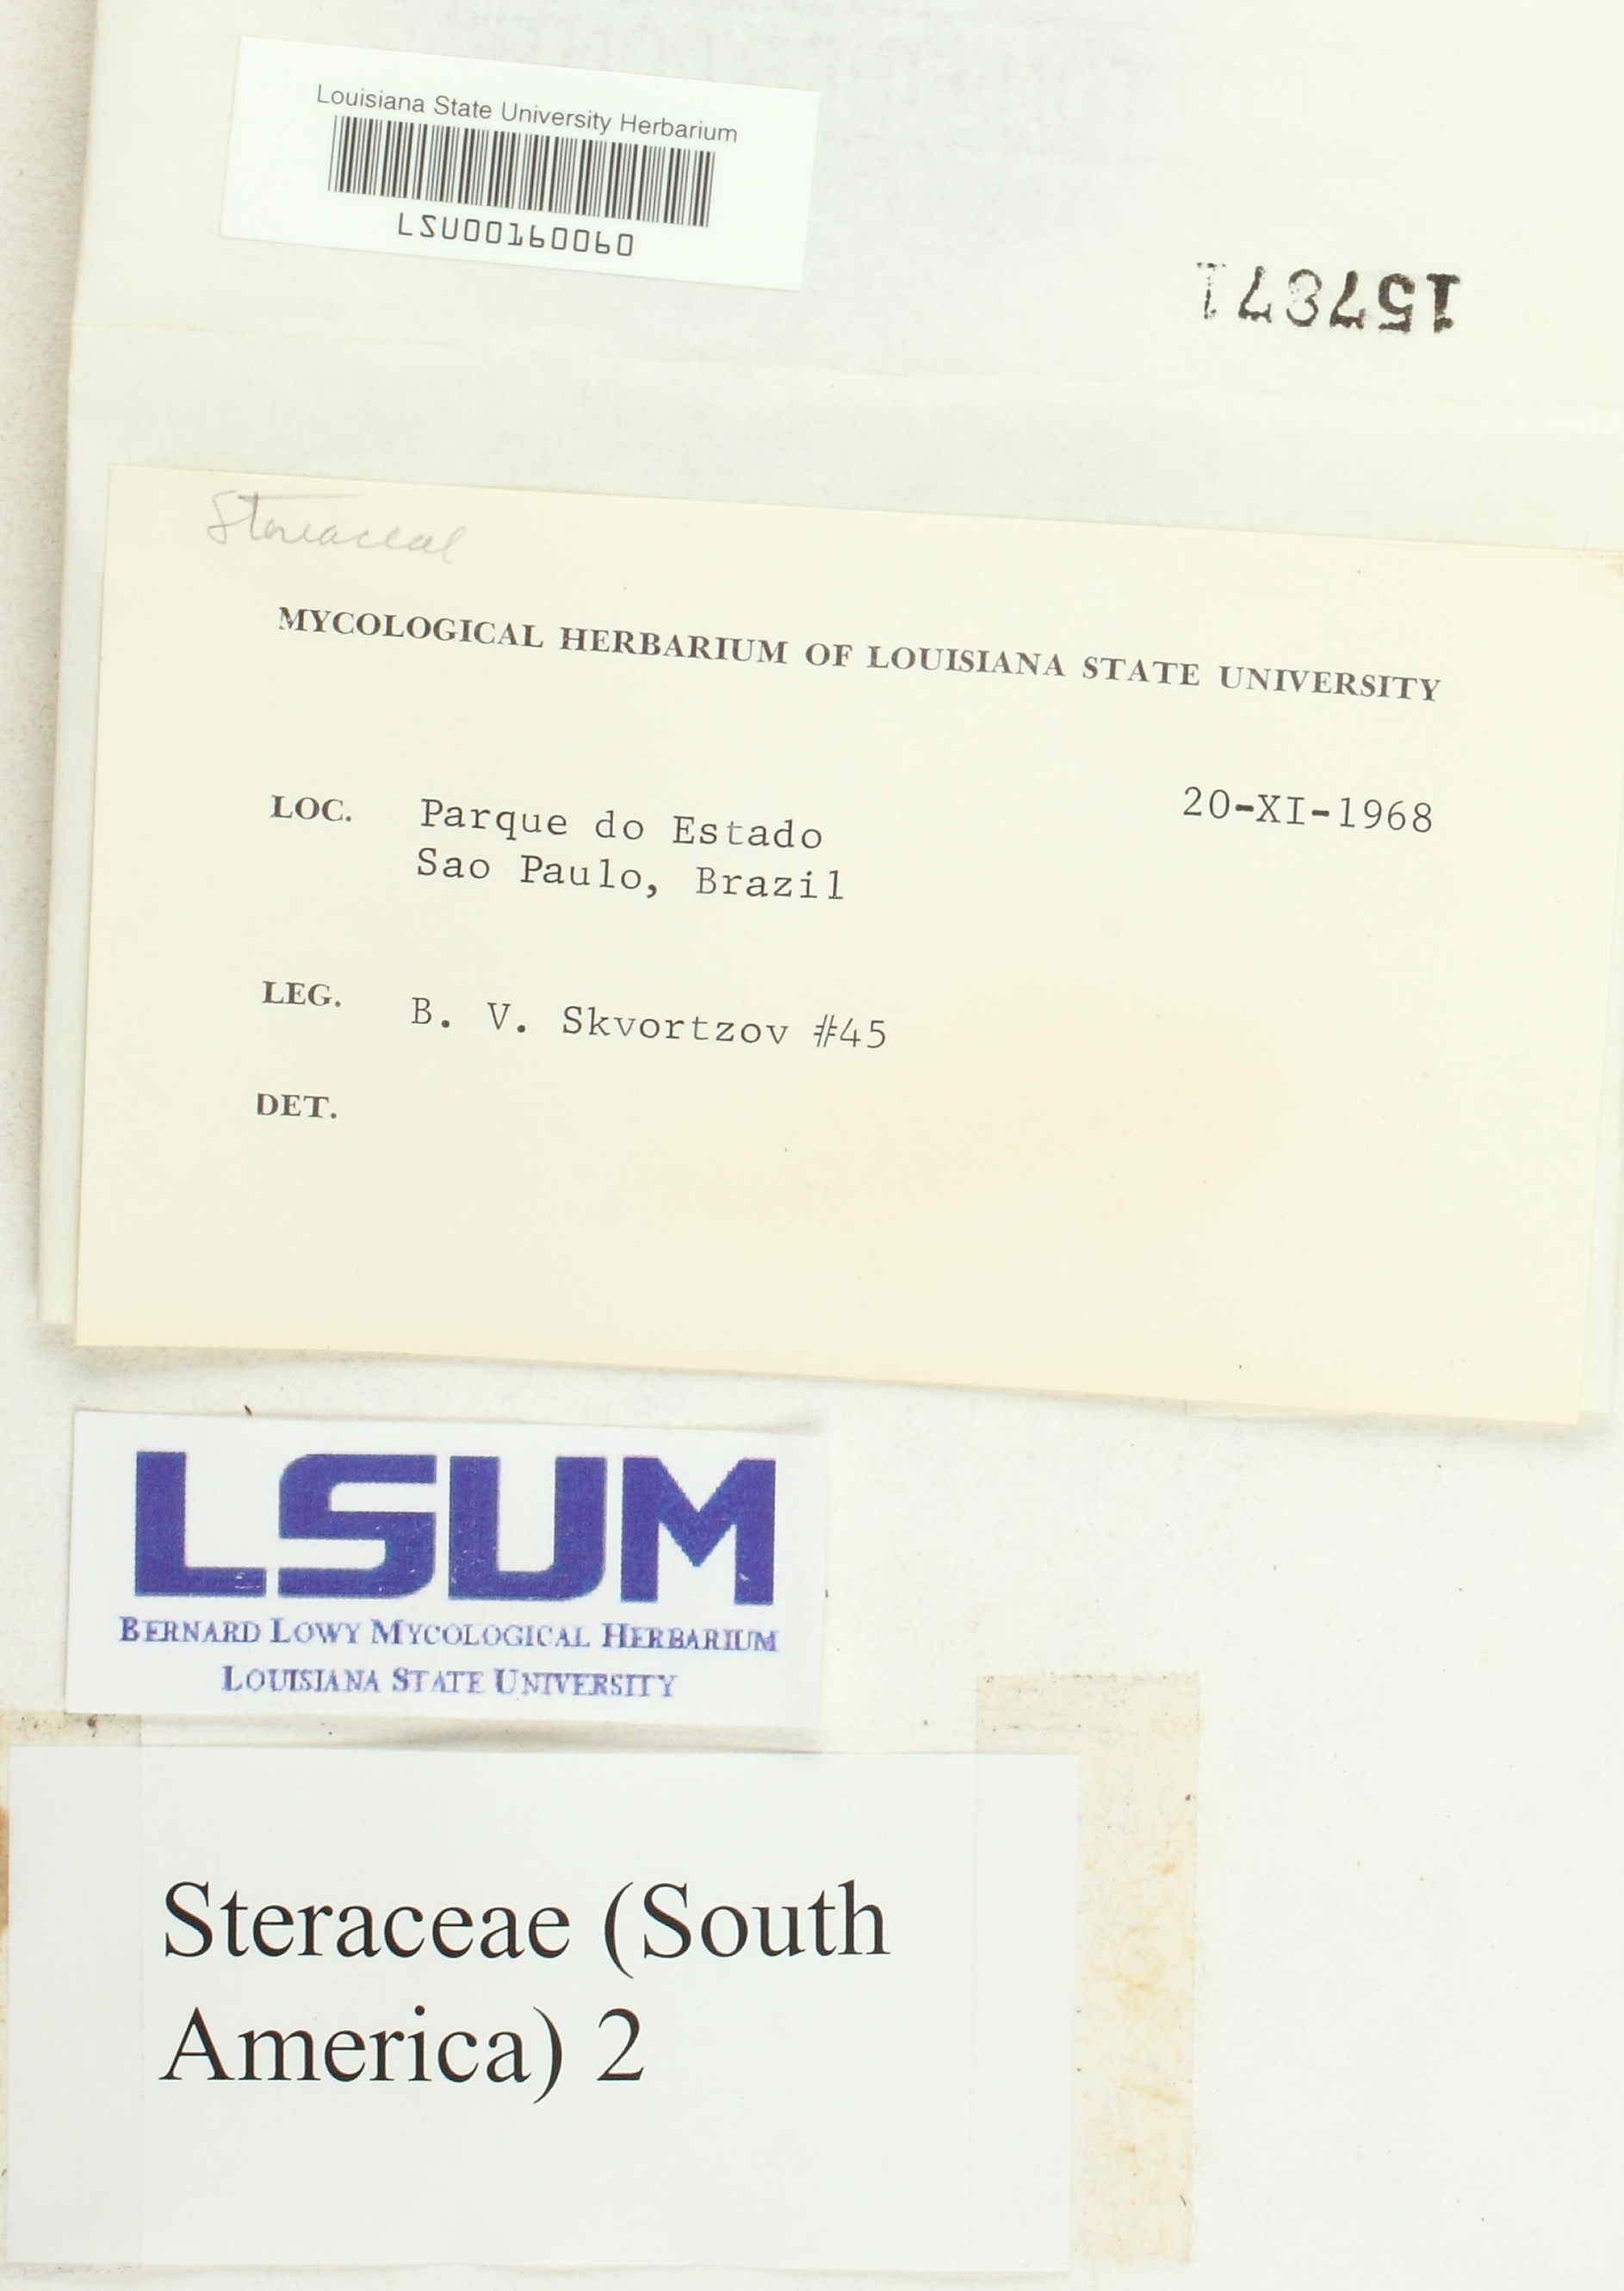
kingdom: Fungi
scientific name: Fungi
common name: Fungi
